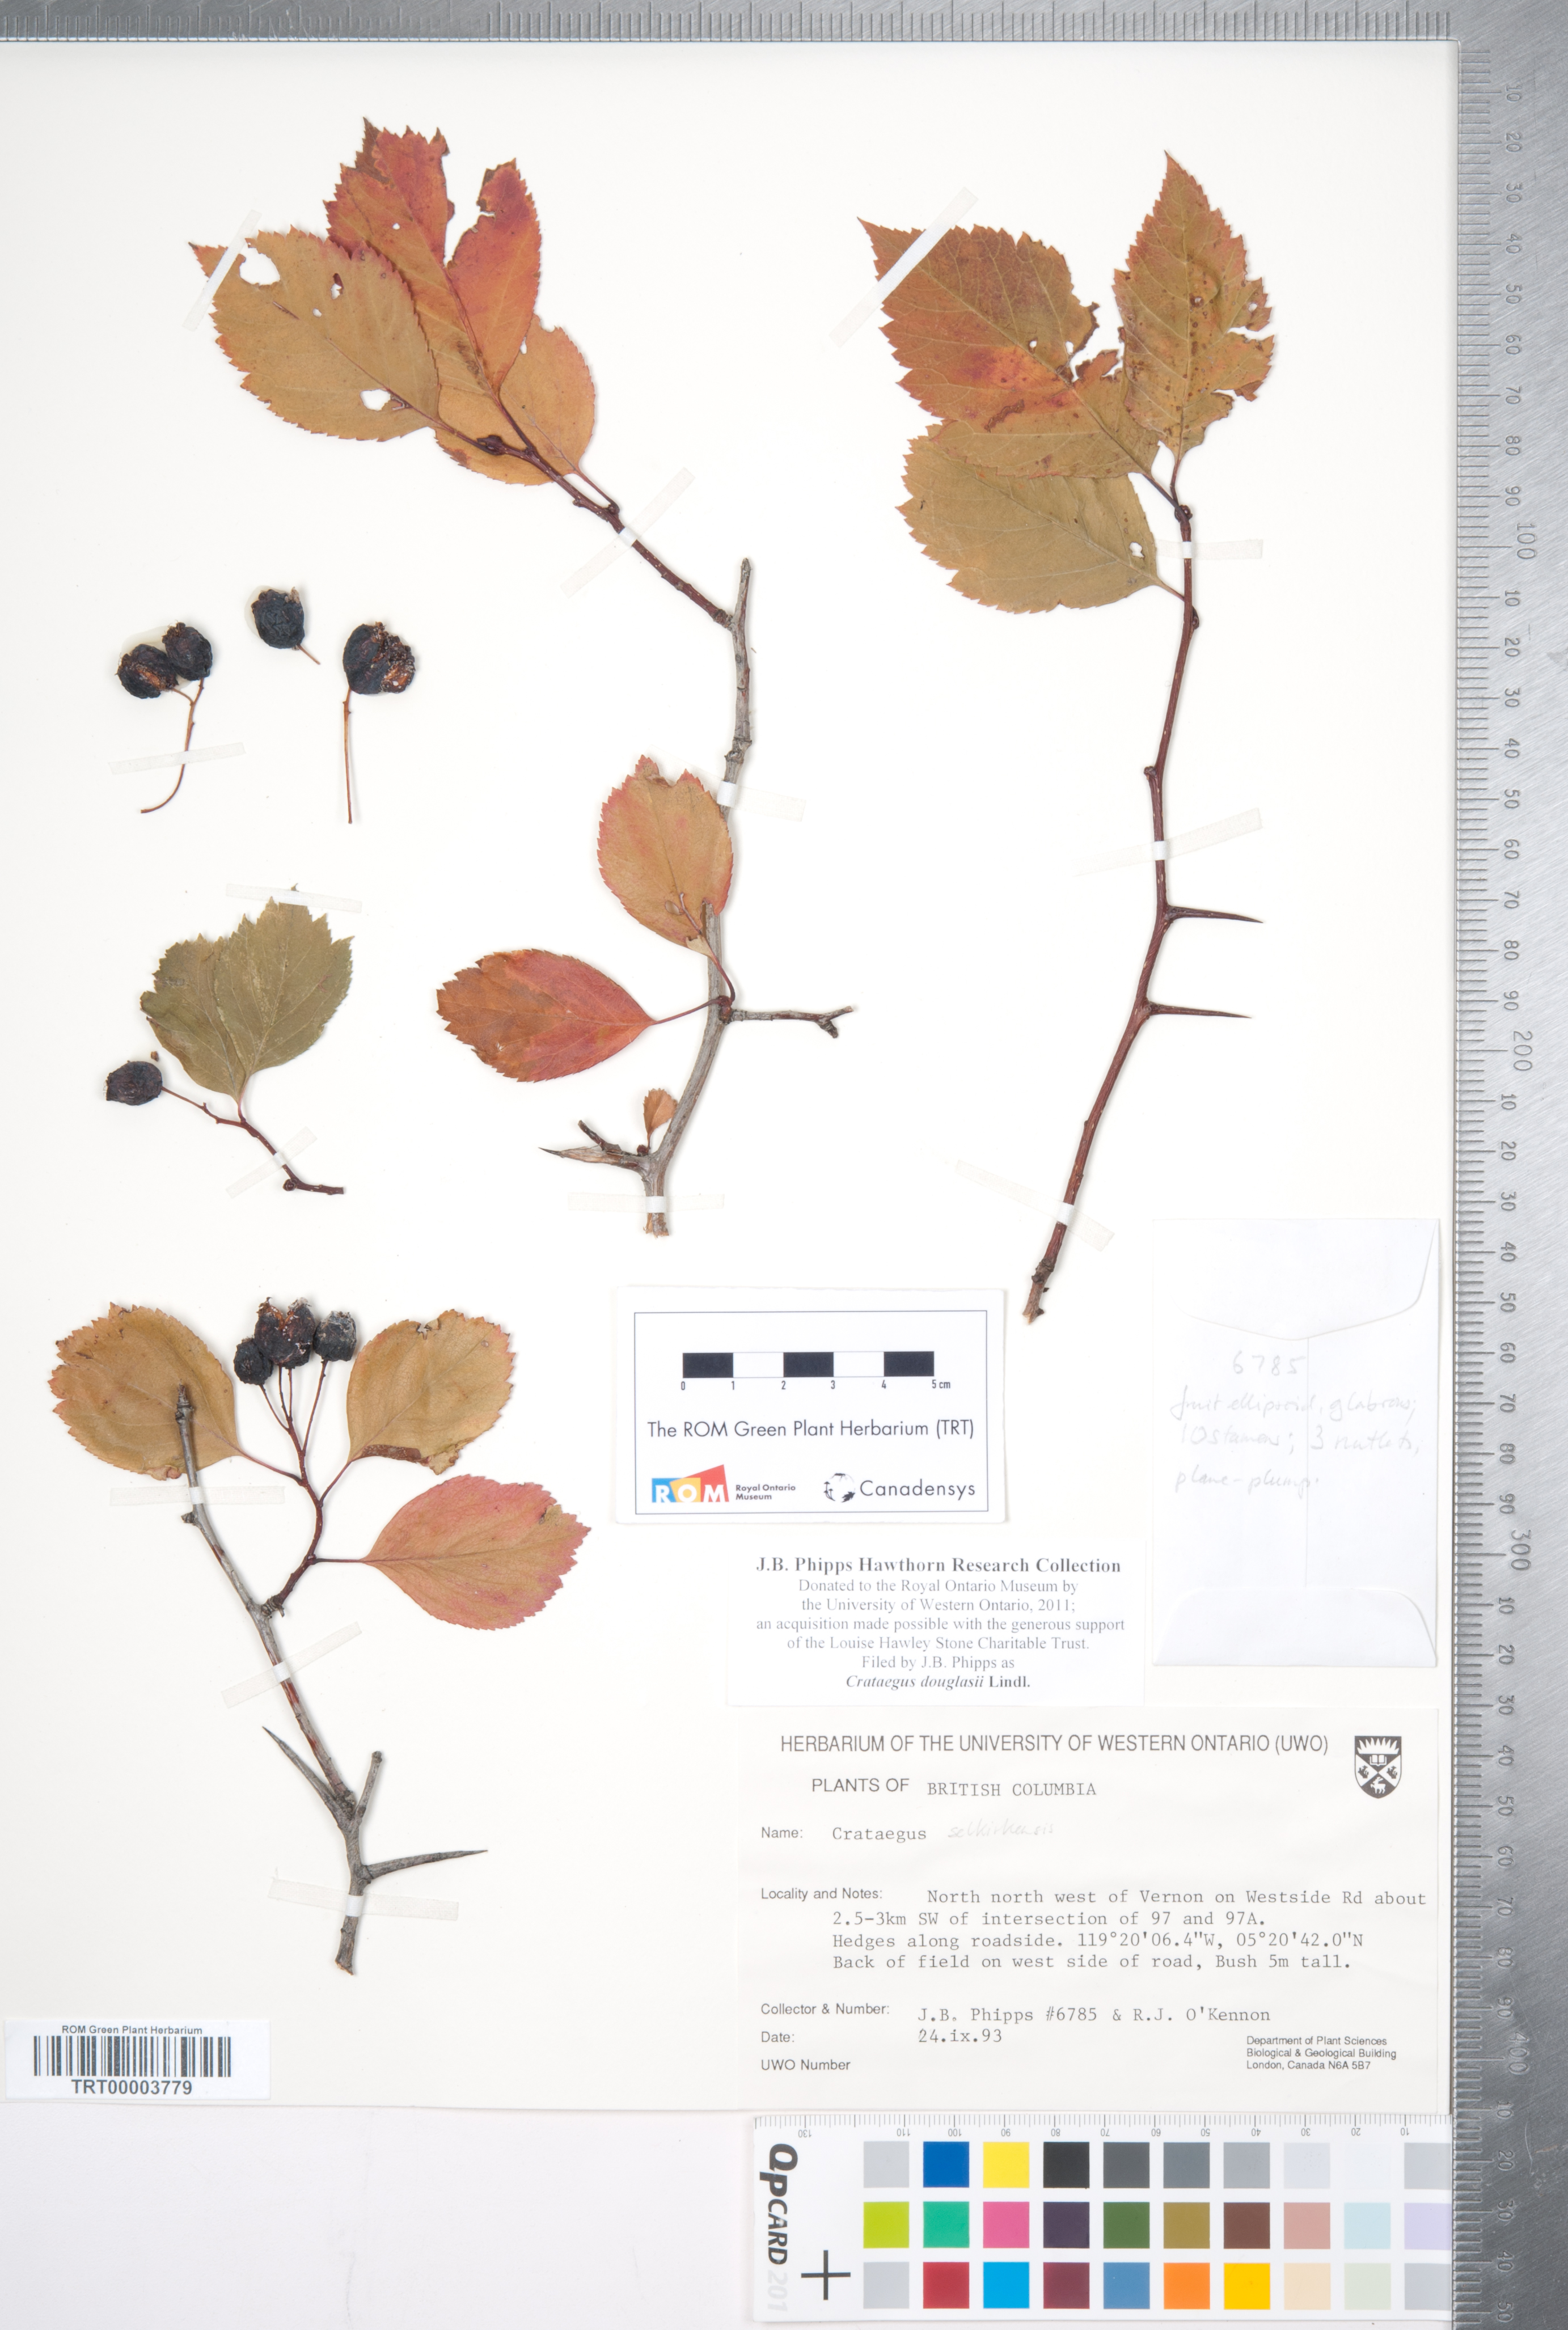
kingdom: Plantae
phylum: Tracheophyta
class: Magnoliopsida
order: Rosales
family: Rosaceae
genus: Crataegus
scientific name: Crataegus douglasii
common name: Black hawthorn
